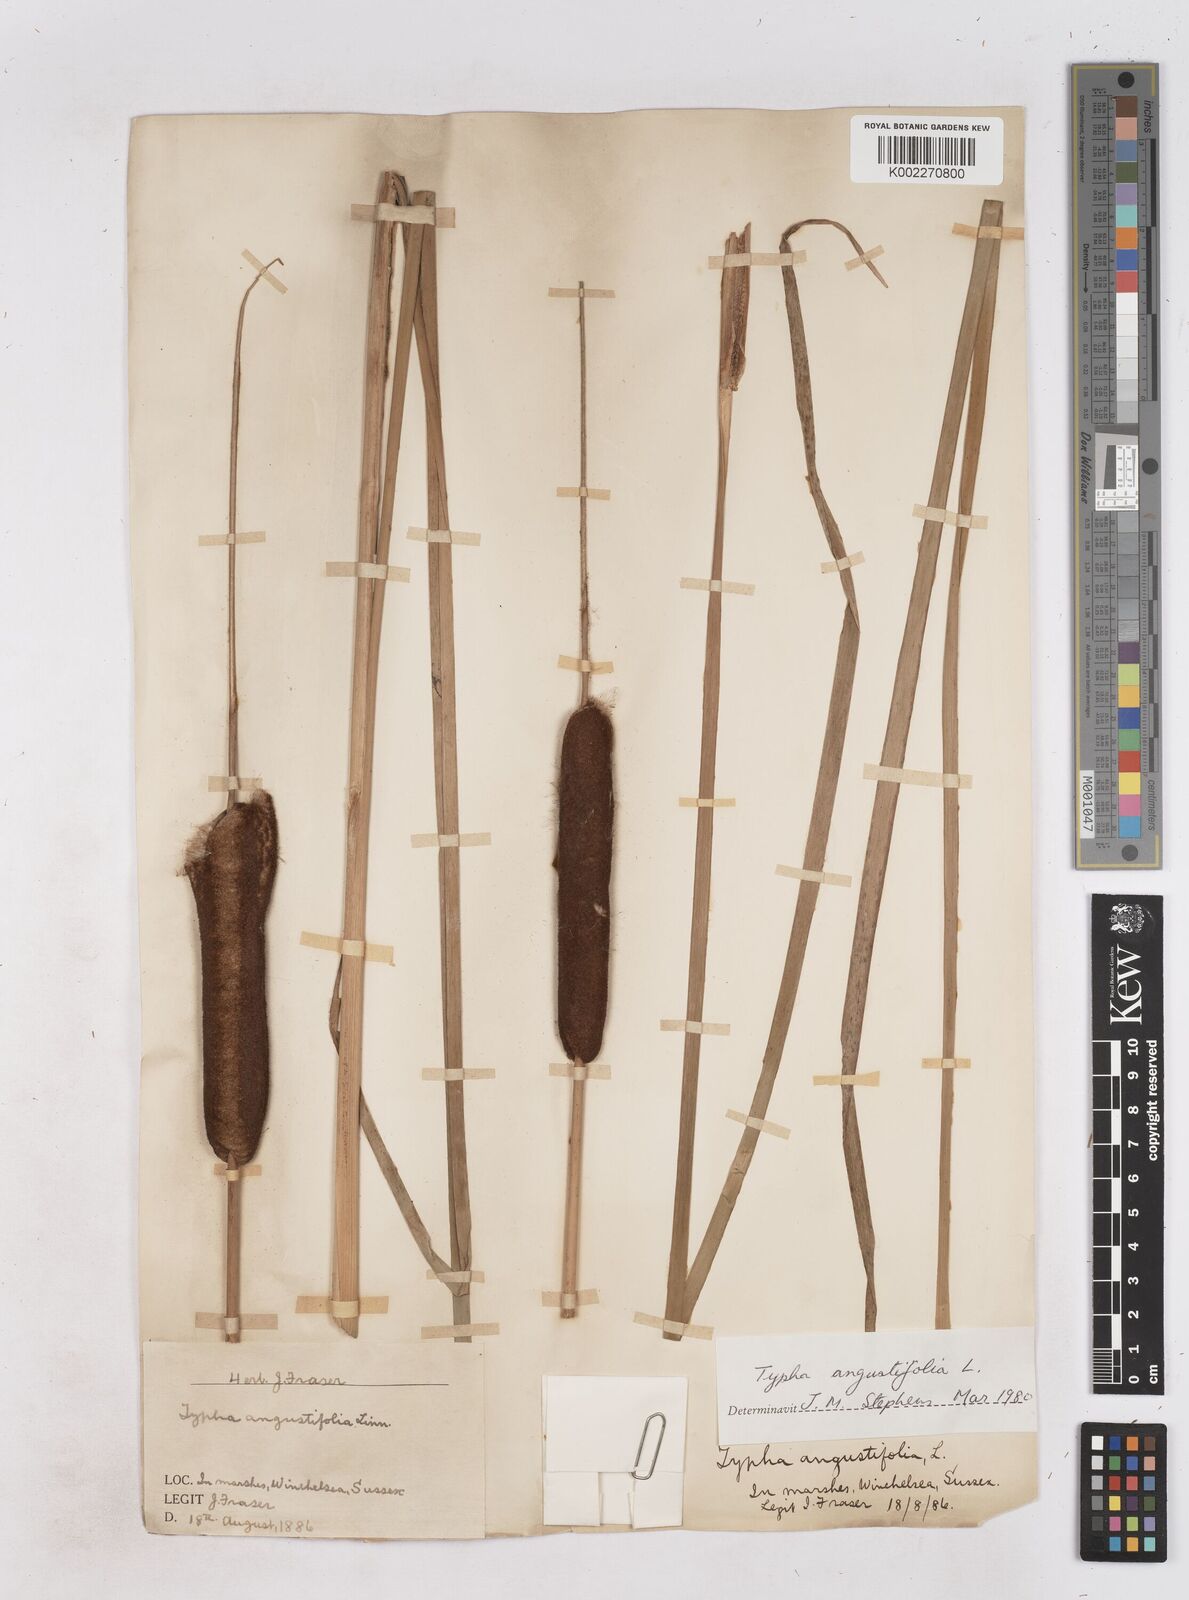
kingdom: Plantae
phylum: Tracheophyta
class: Liliopsida
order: Poales
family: Typhaceae
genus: Typha
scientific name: Typha angustifolia
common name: Lesser bulrush
